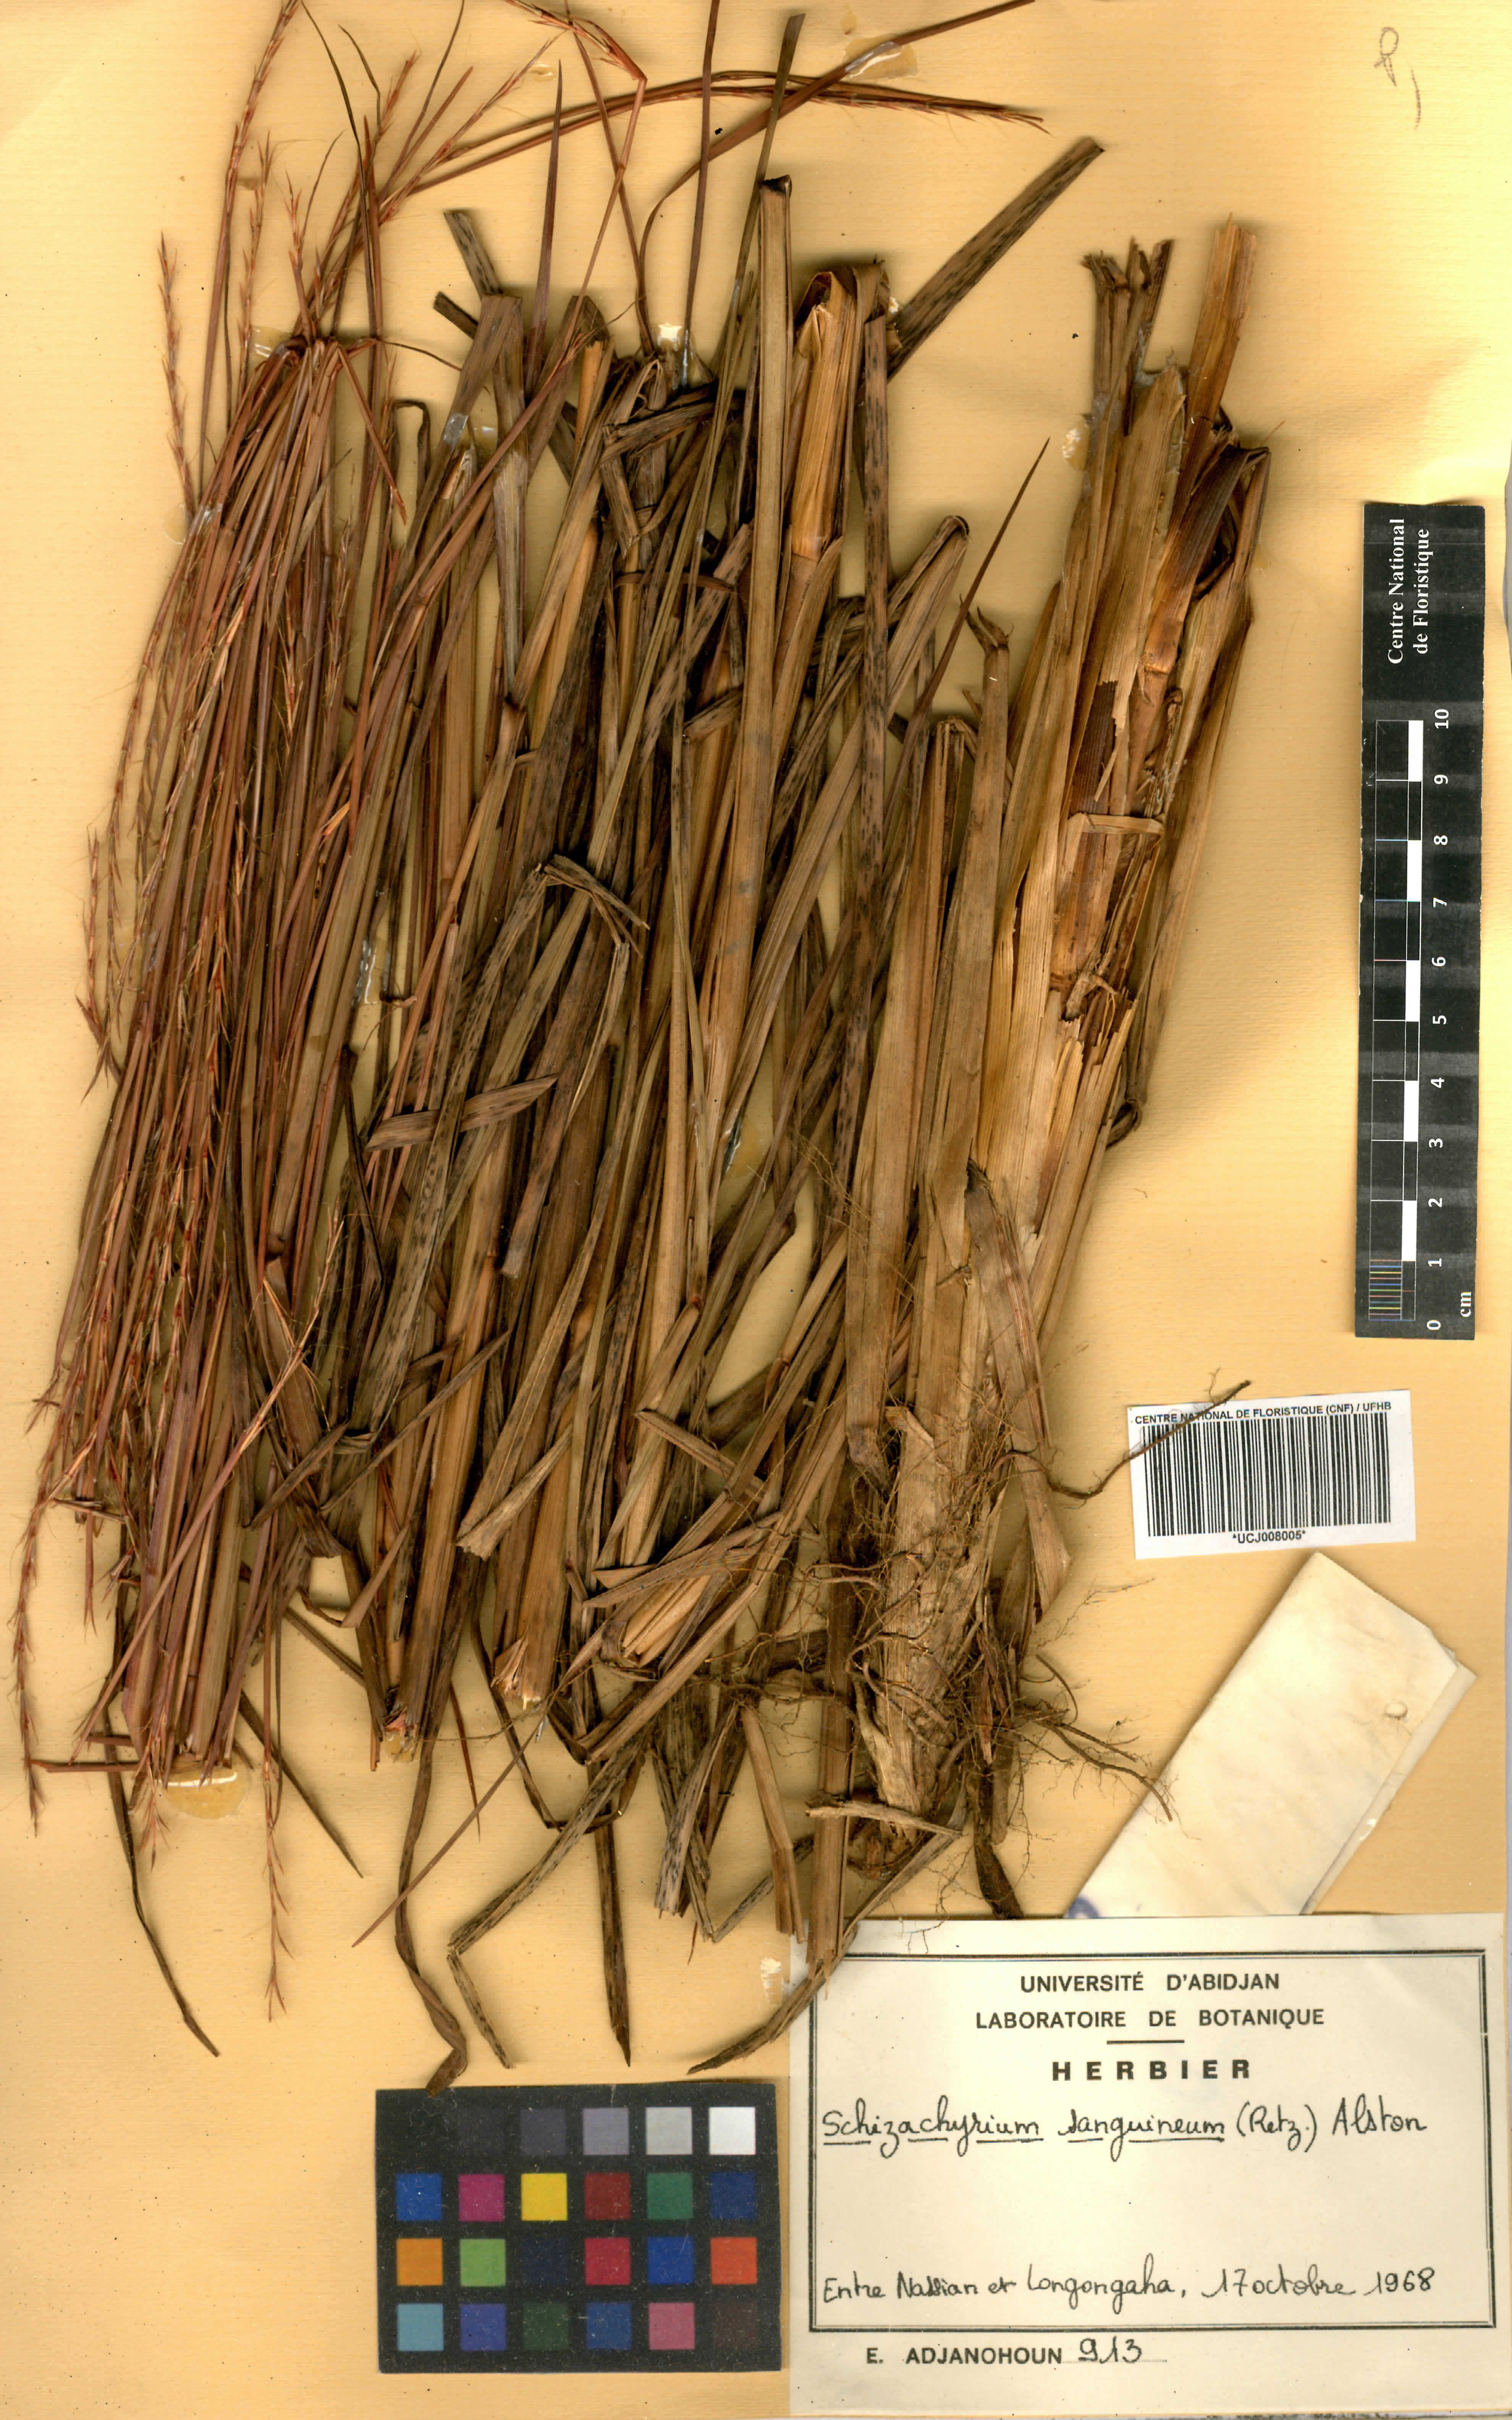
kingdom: Plantae
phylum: Tracheophyta
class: Liliopsida
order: Poales
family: Poaceae
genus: Schizachyrium
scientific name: Schizachyrium sanguineum
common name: Crimson bluestem
